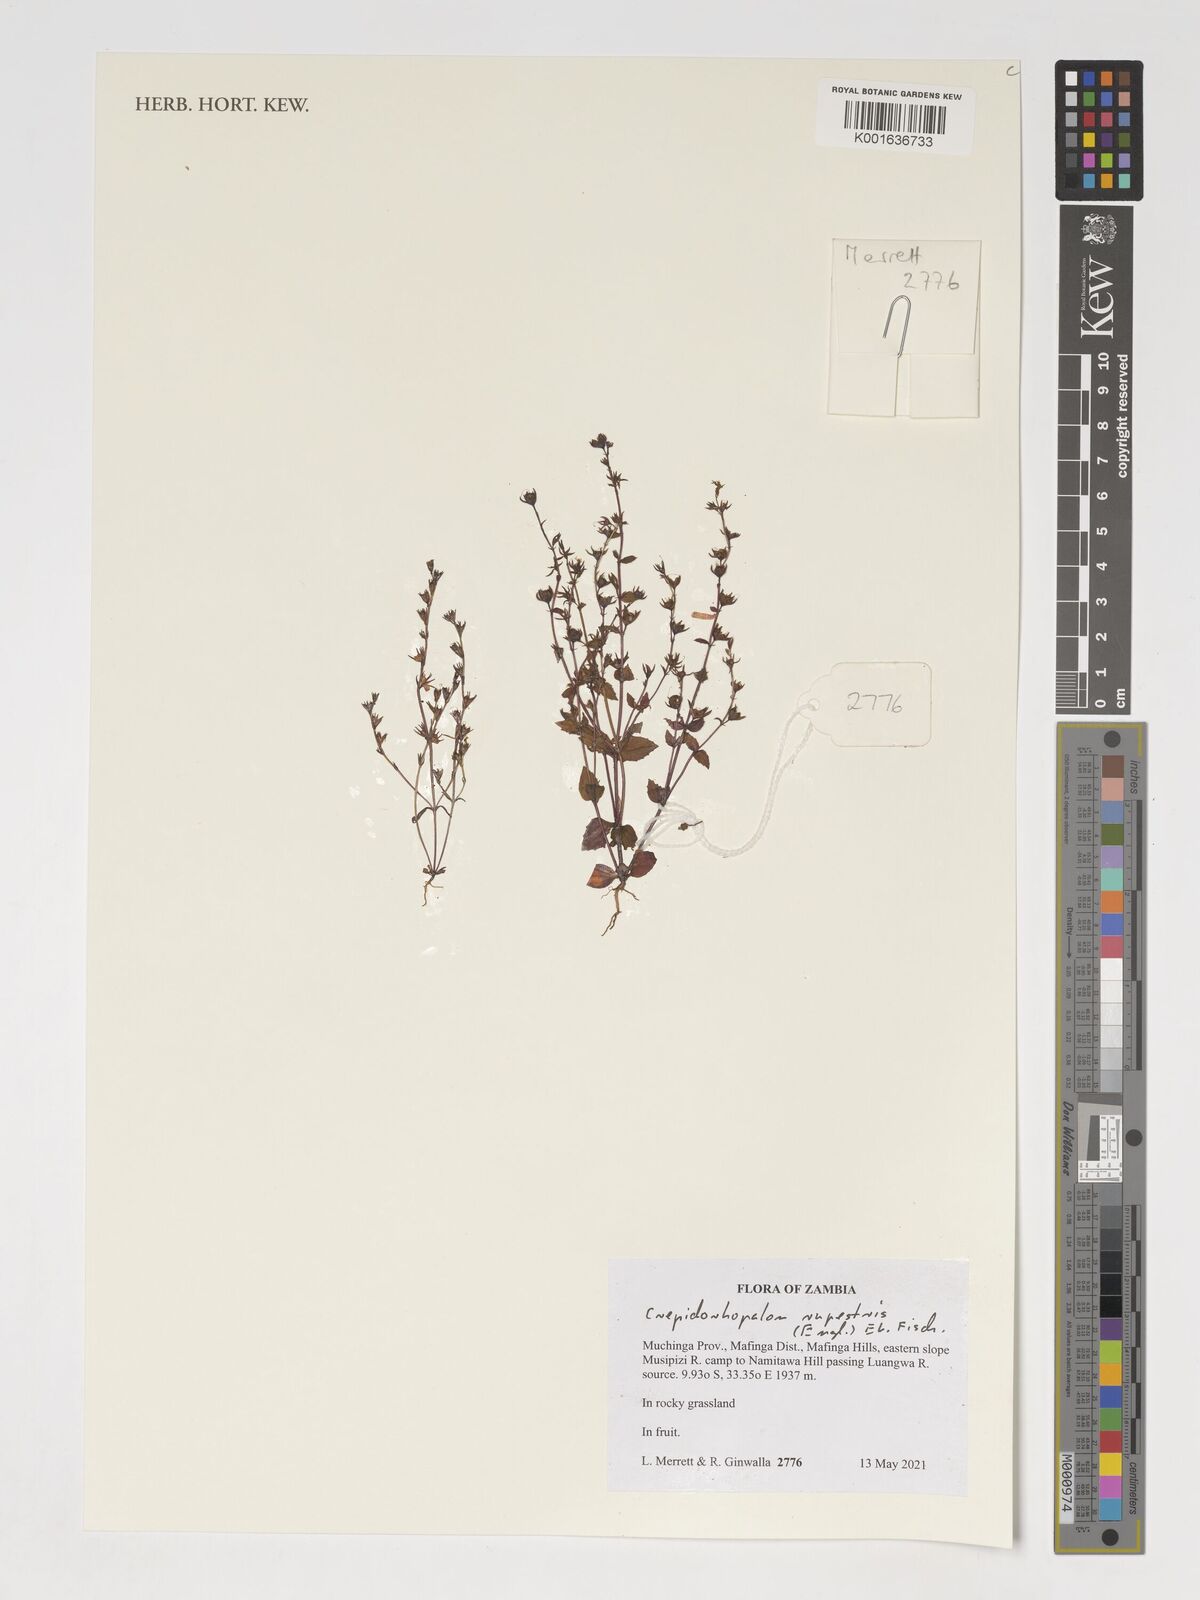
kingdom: Plantae
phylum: Tracheophyta
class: Magnoliopsida
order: Lamiales
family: Linderniaceae
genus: Crepidorhopalon
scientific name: Crepidorhopalon rupestris
